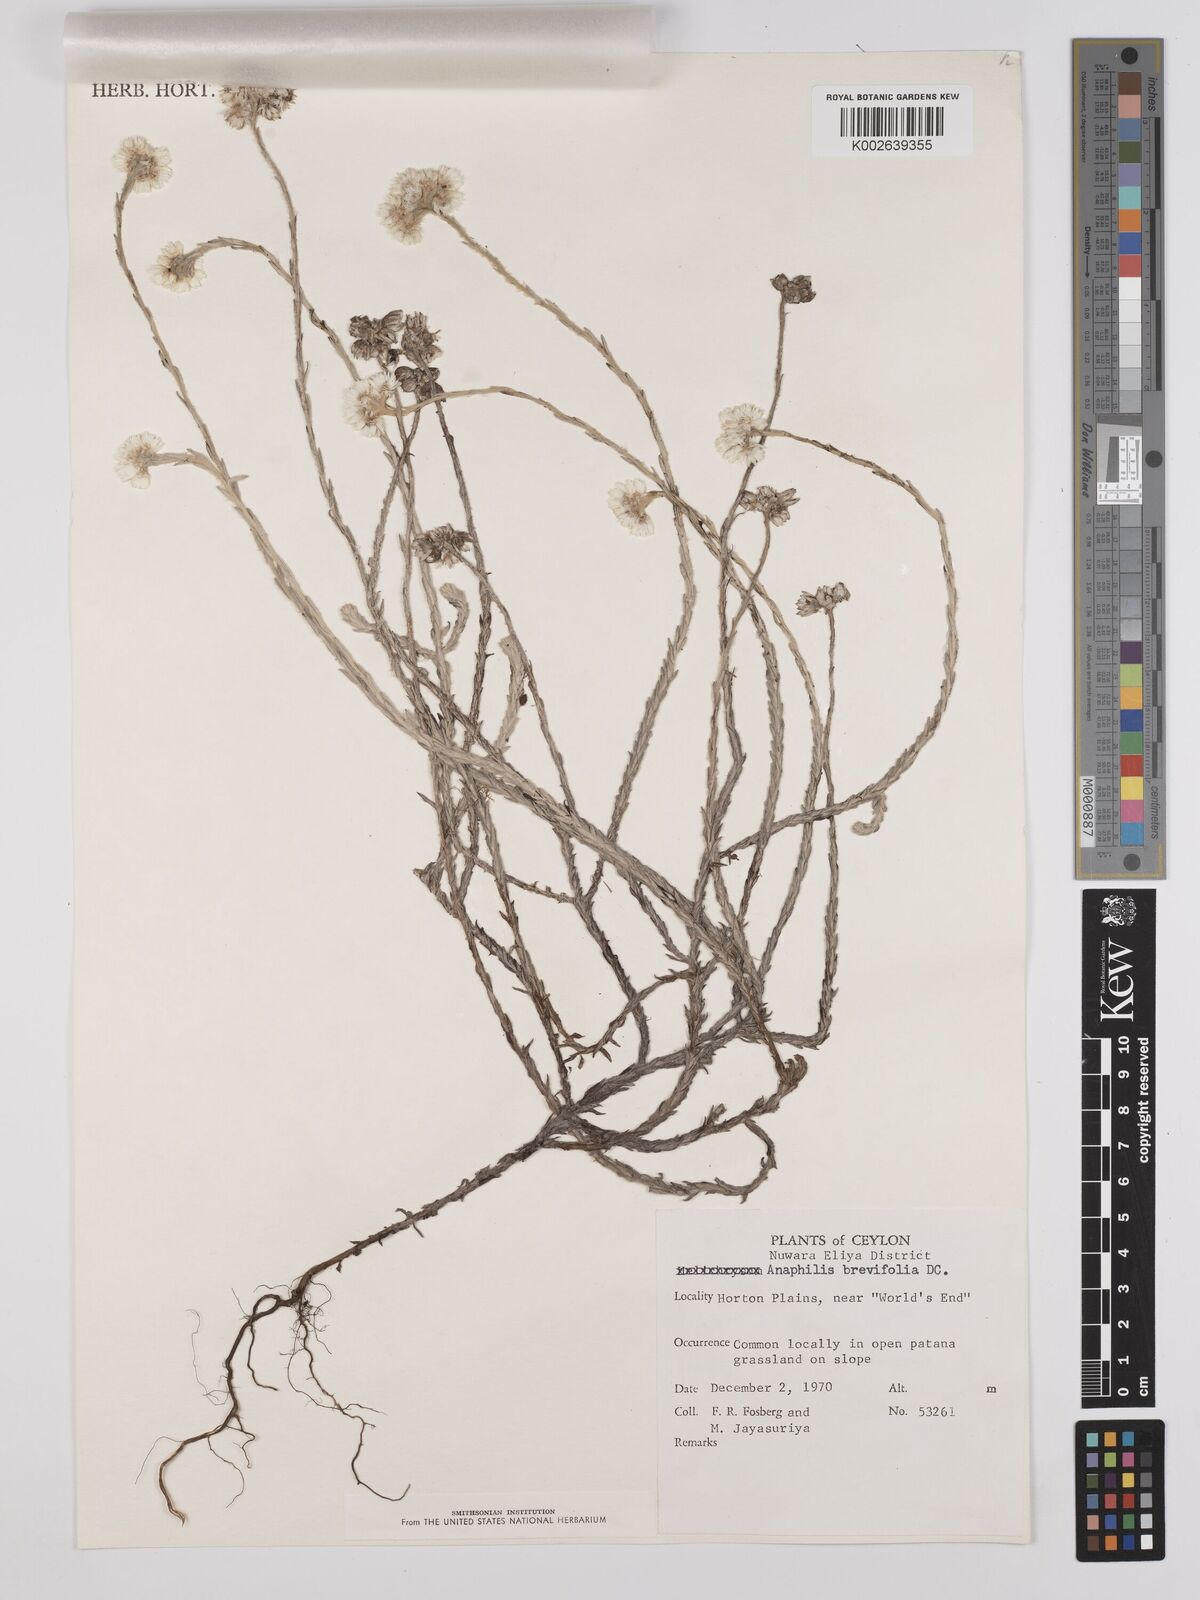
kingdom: Plantae
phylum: Tracheophyta
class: Magnoliopsida
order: Asterales
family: Asteraceae
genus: Anaphalis
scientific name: Anaphalis brevifolia
